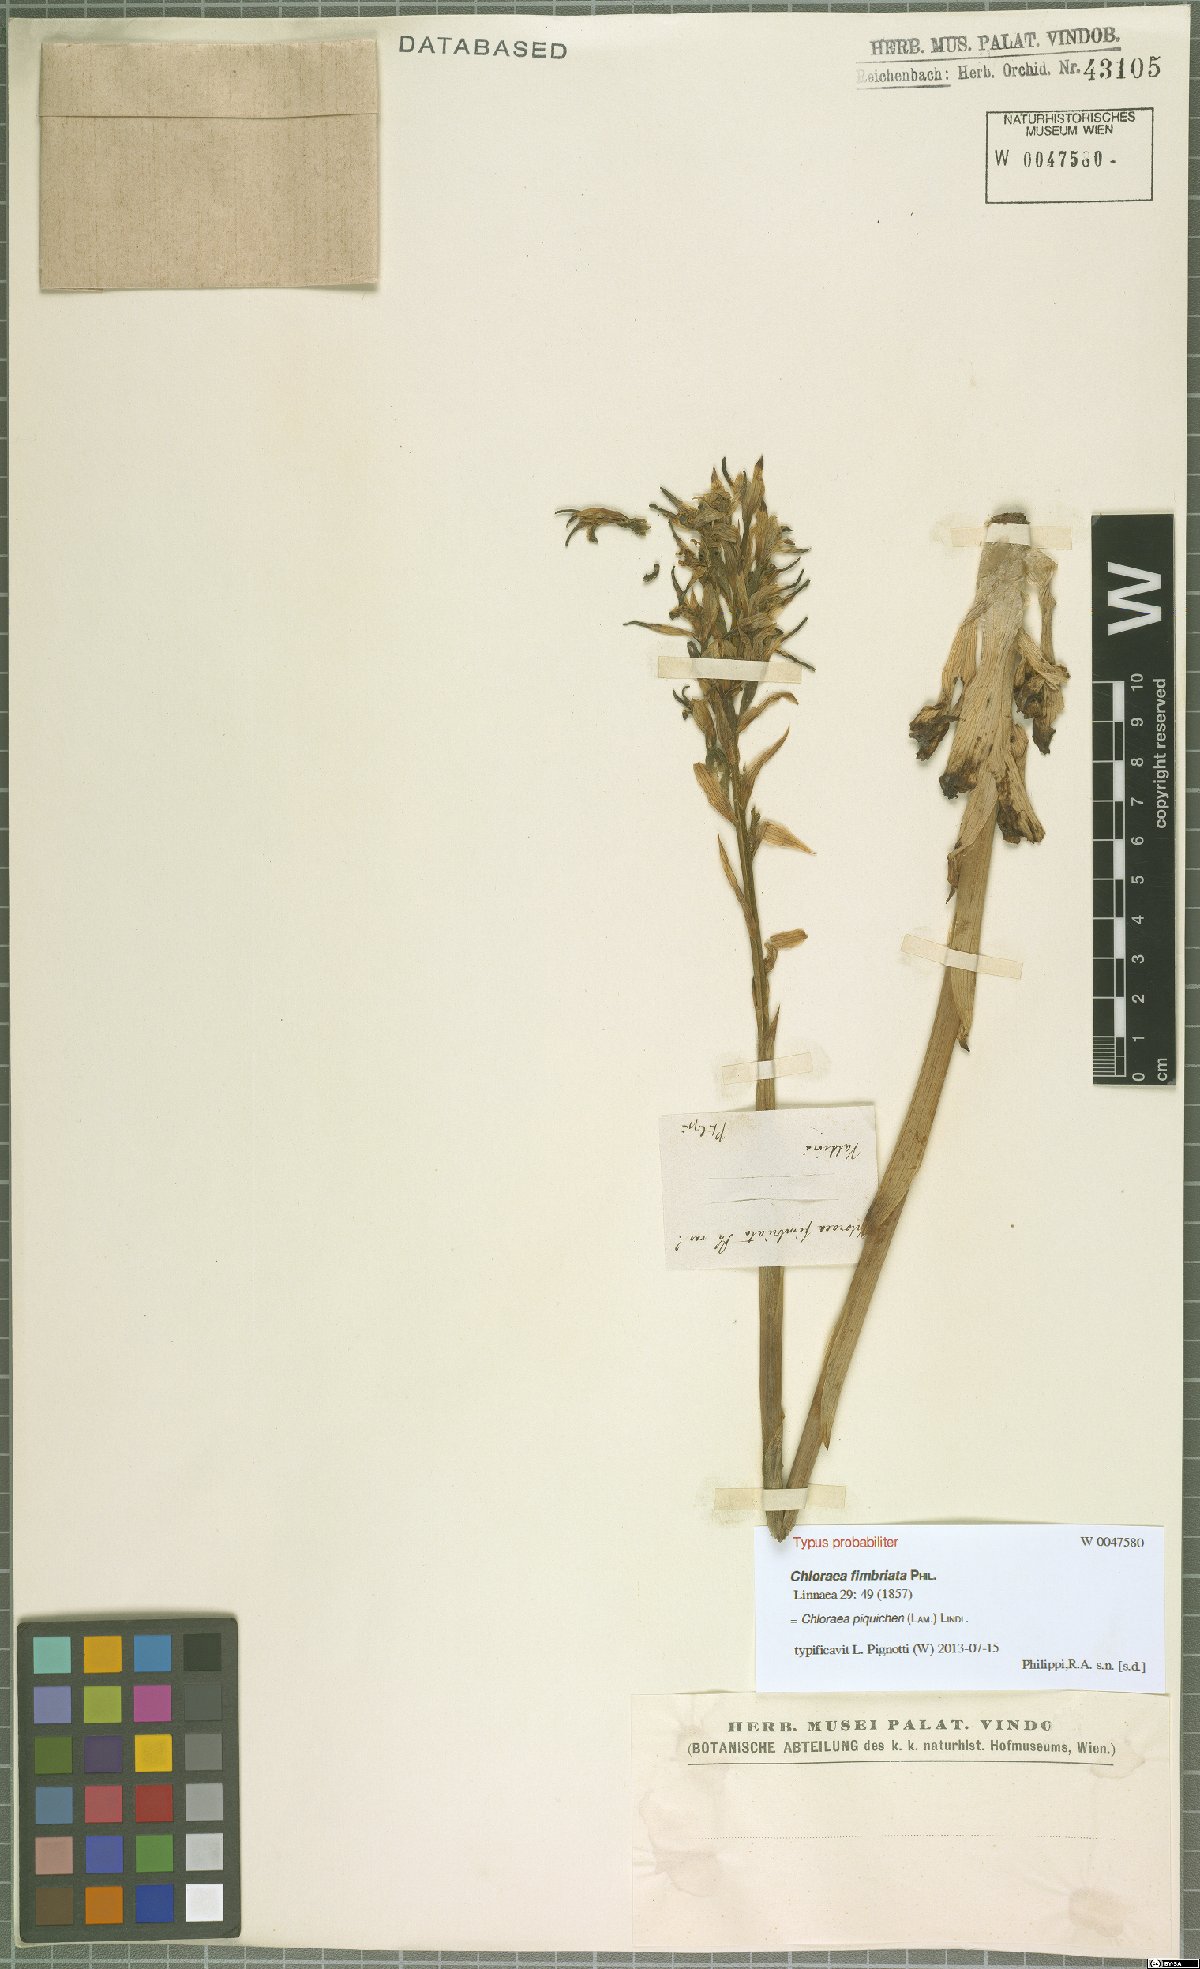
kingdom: Plantae
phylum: Tracheophyta
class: Liliopsida
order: Asparagales
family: Orchidaceae
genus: Chloraea
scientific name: Chloraea piquichen
